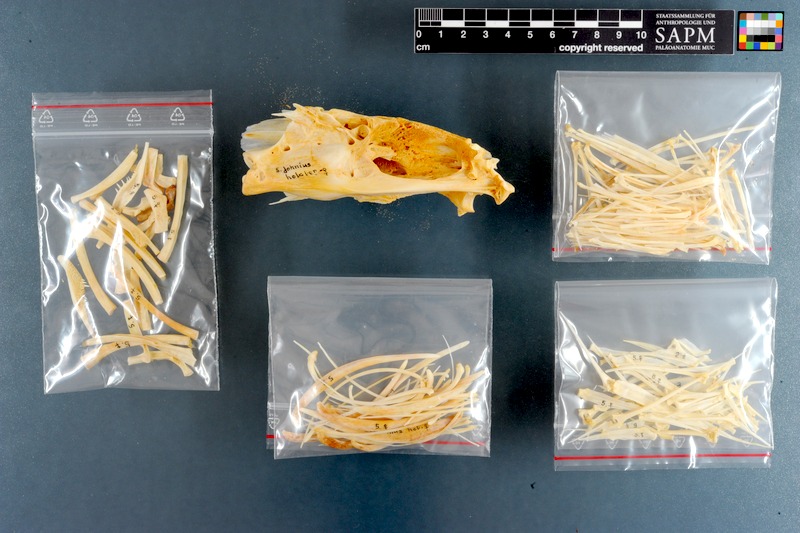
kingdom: Animalia
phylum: Chordata
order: Perciformes
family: Sciaenidae
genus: Argyrosomus
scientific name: Argyrosomus regius
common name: Meagre
